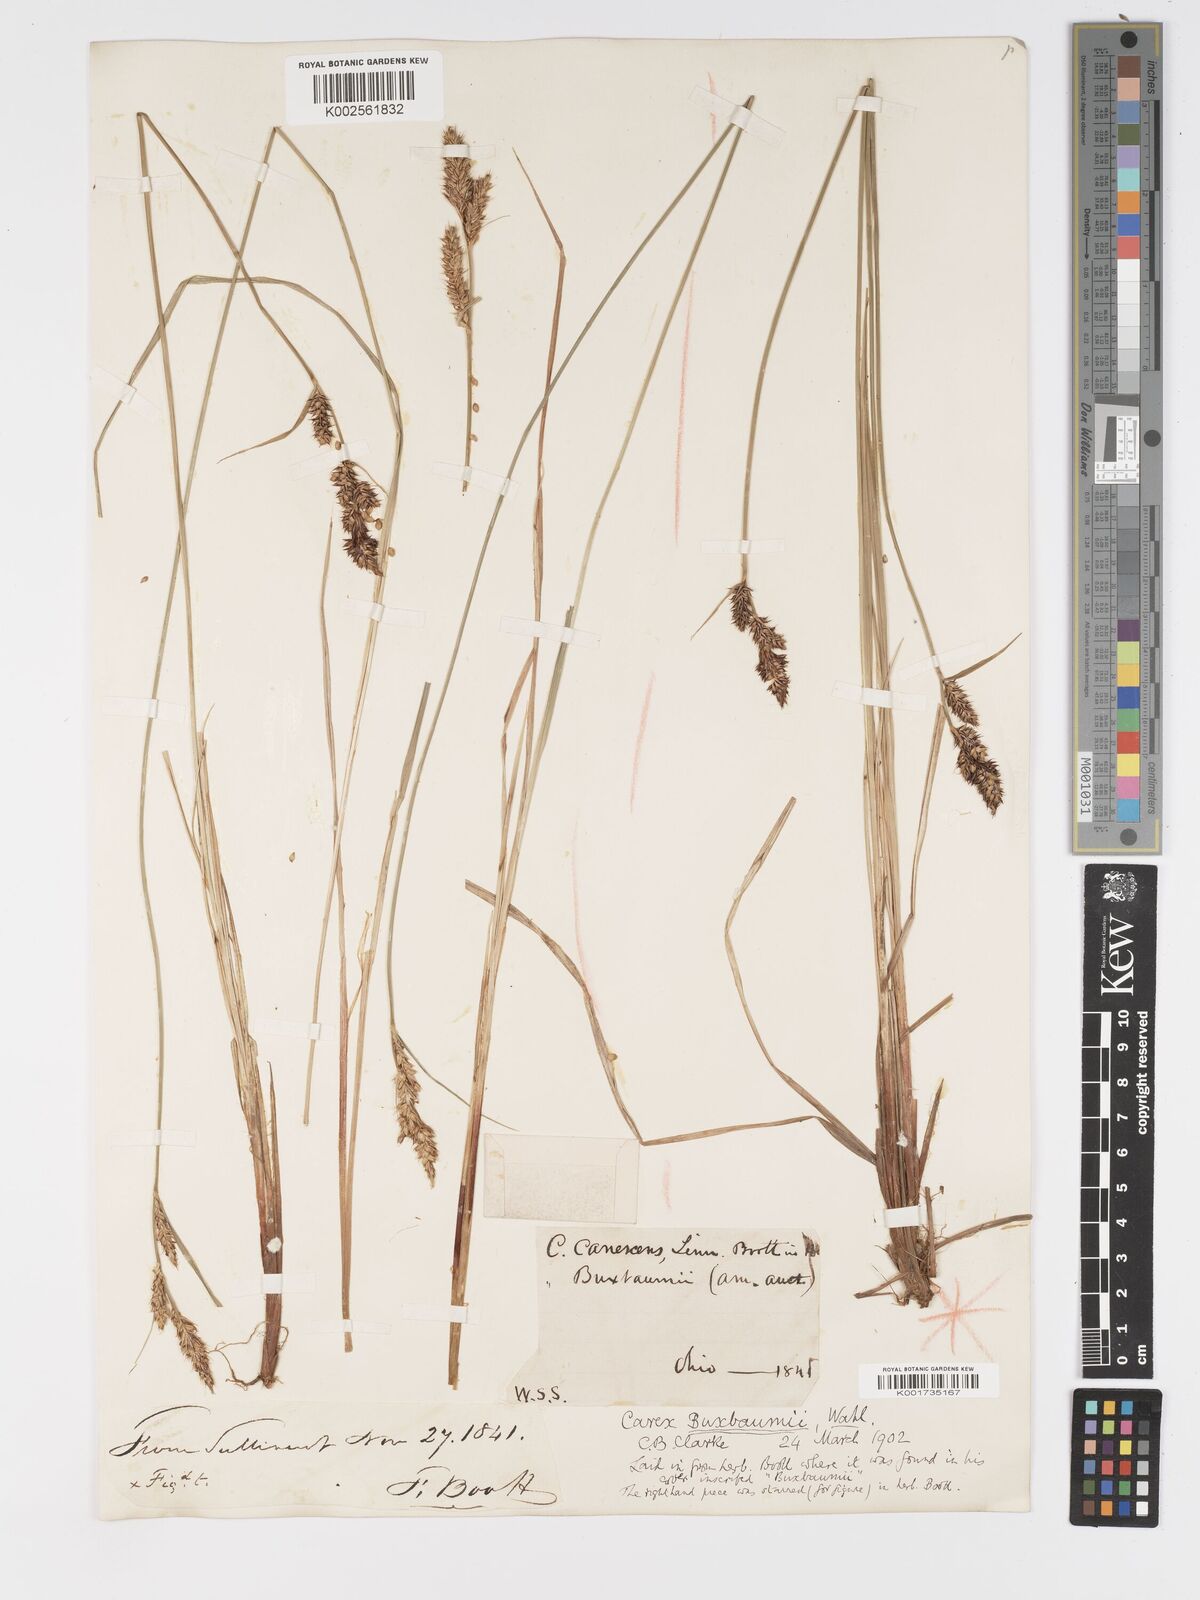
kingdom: Plantae
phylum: Tracheophyta
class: Liliopsida
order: Poales
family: Cyperaceae
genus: Carex
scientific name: Carex buxbaumii
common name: Club sedge
